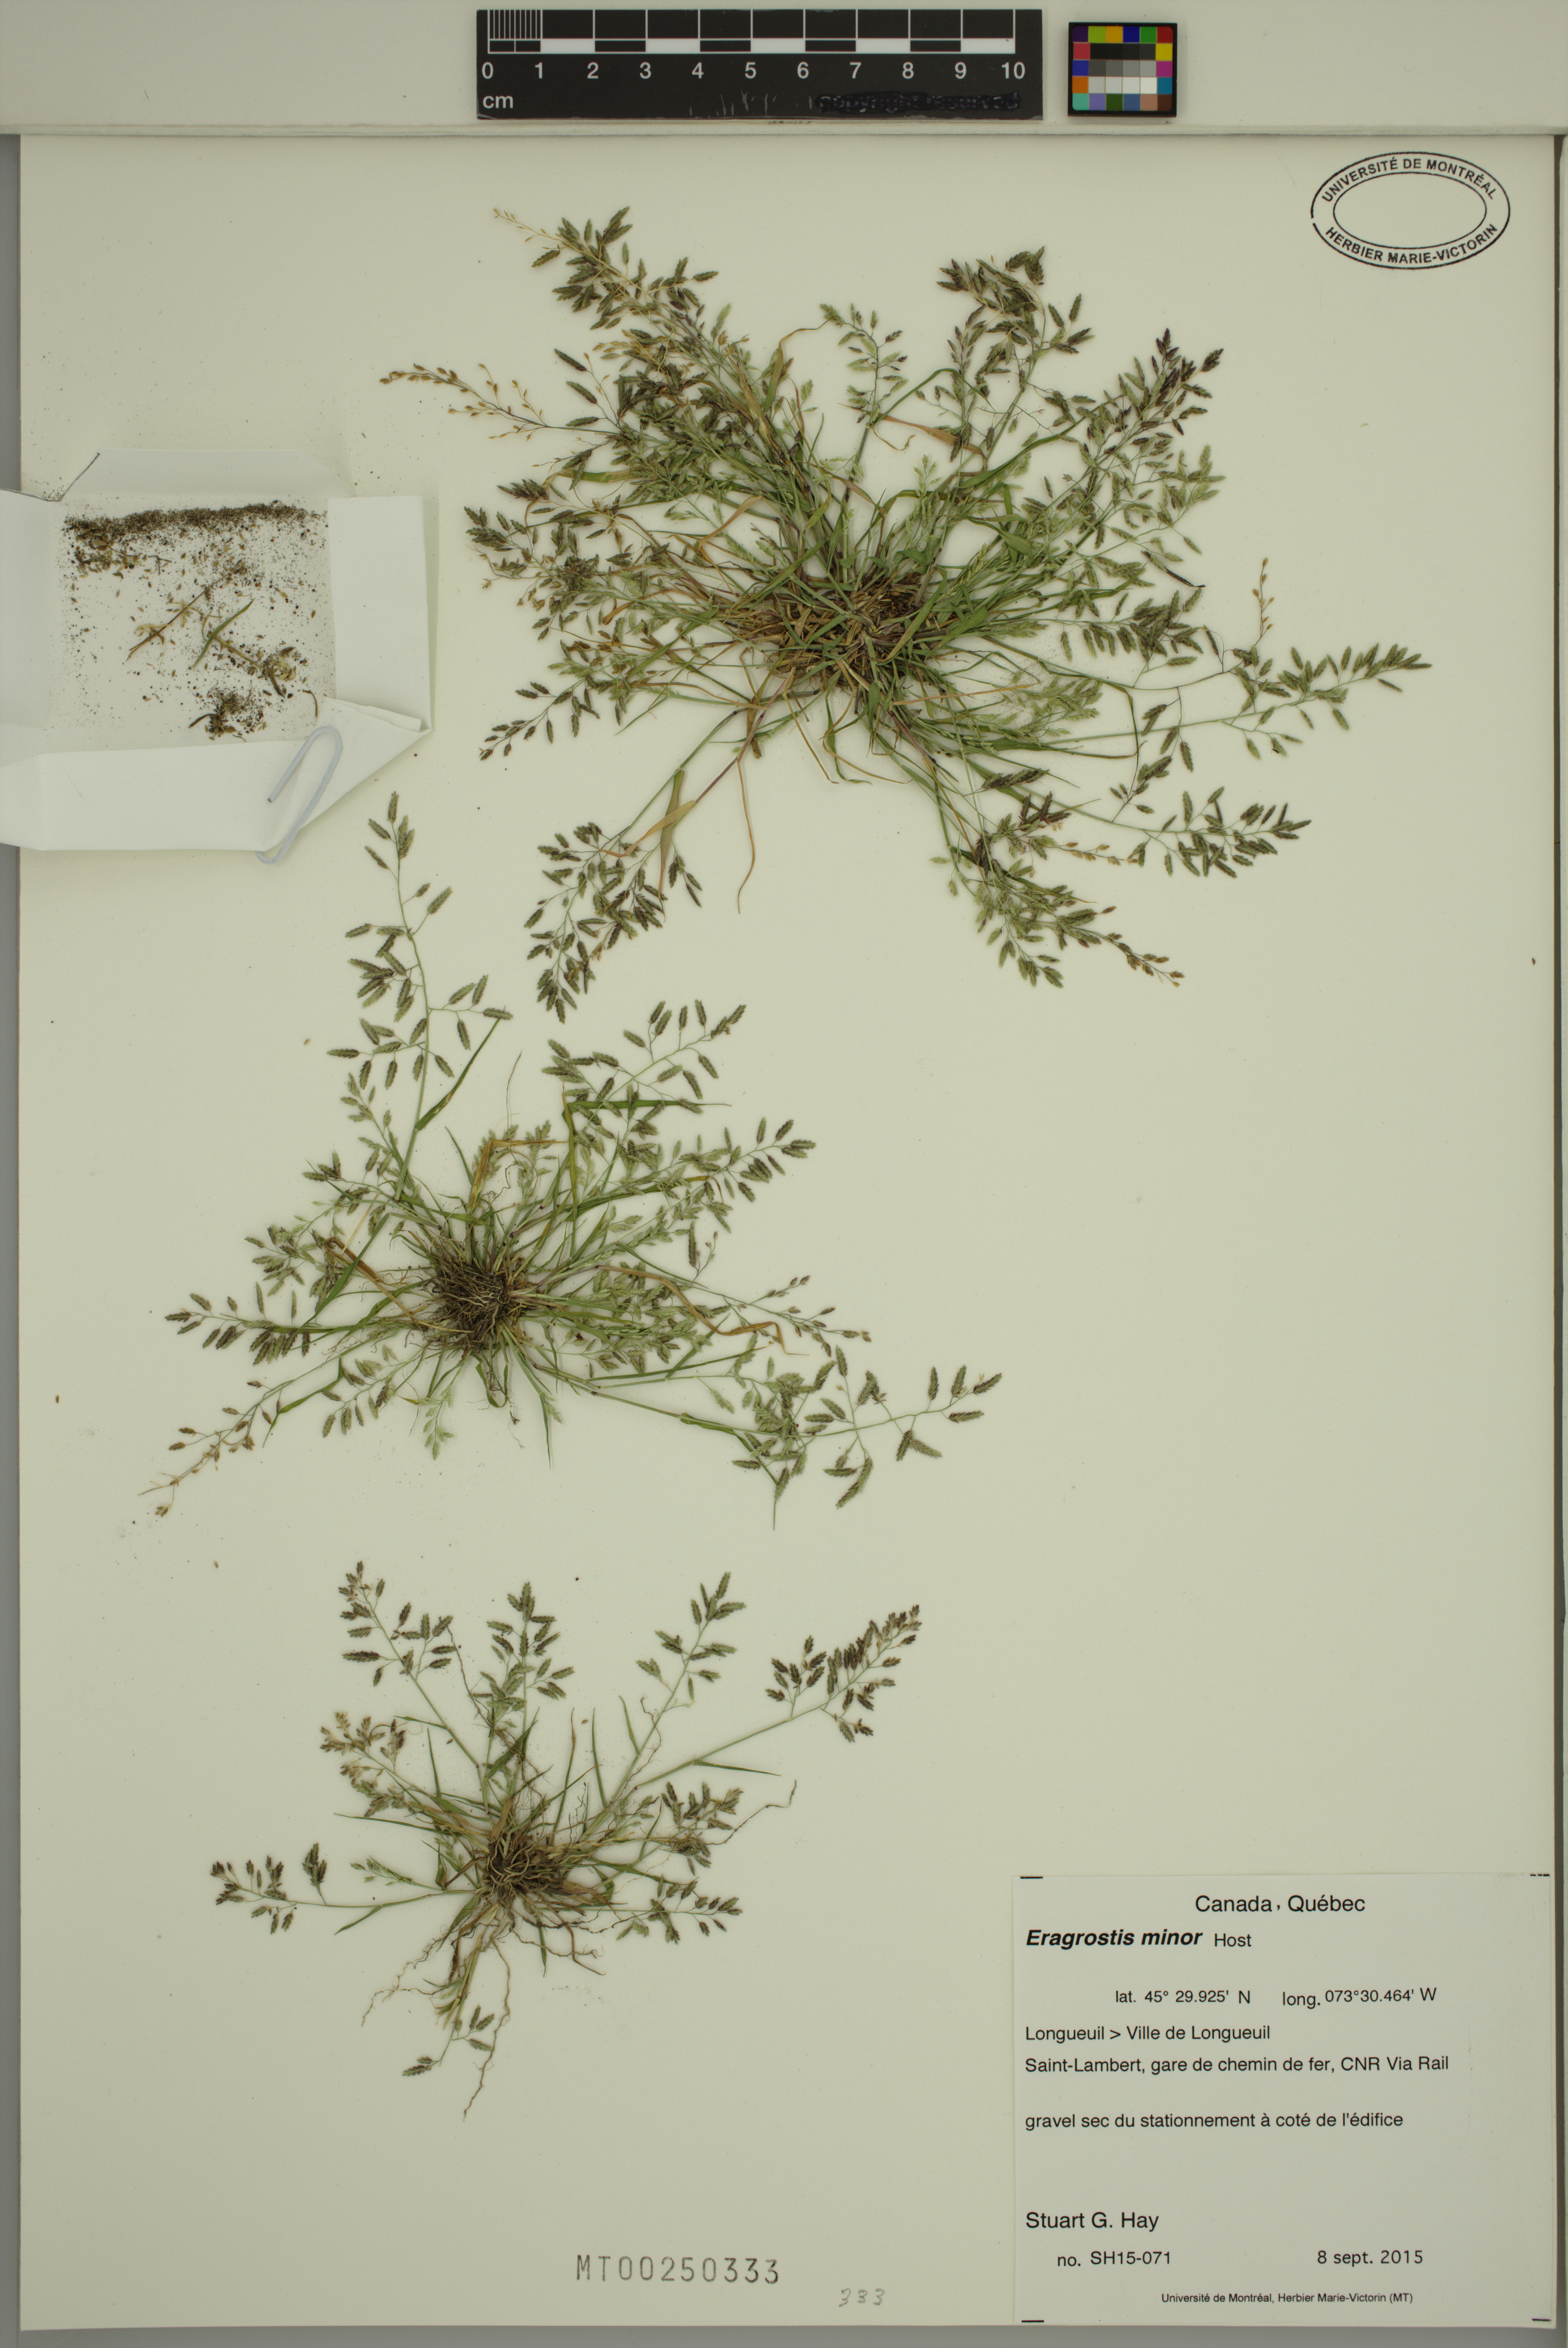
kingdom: Plantae
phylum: Tracheophyta
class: Liliopsida
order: Poales
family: Poaceae
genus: Eragrostis
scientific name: Eragrostis minor
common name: Small love-grass
